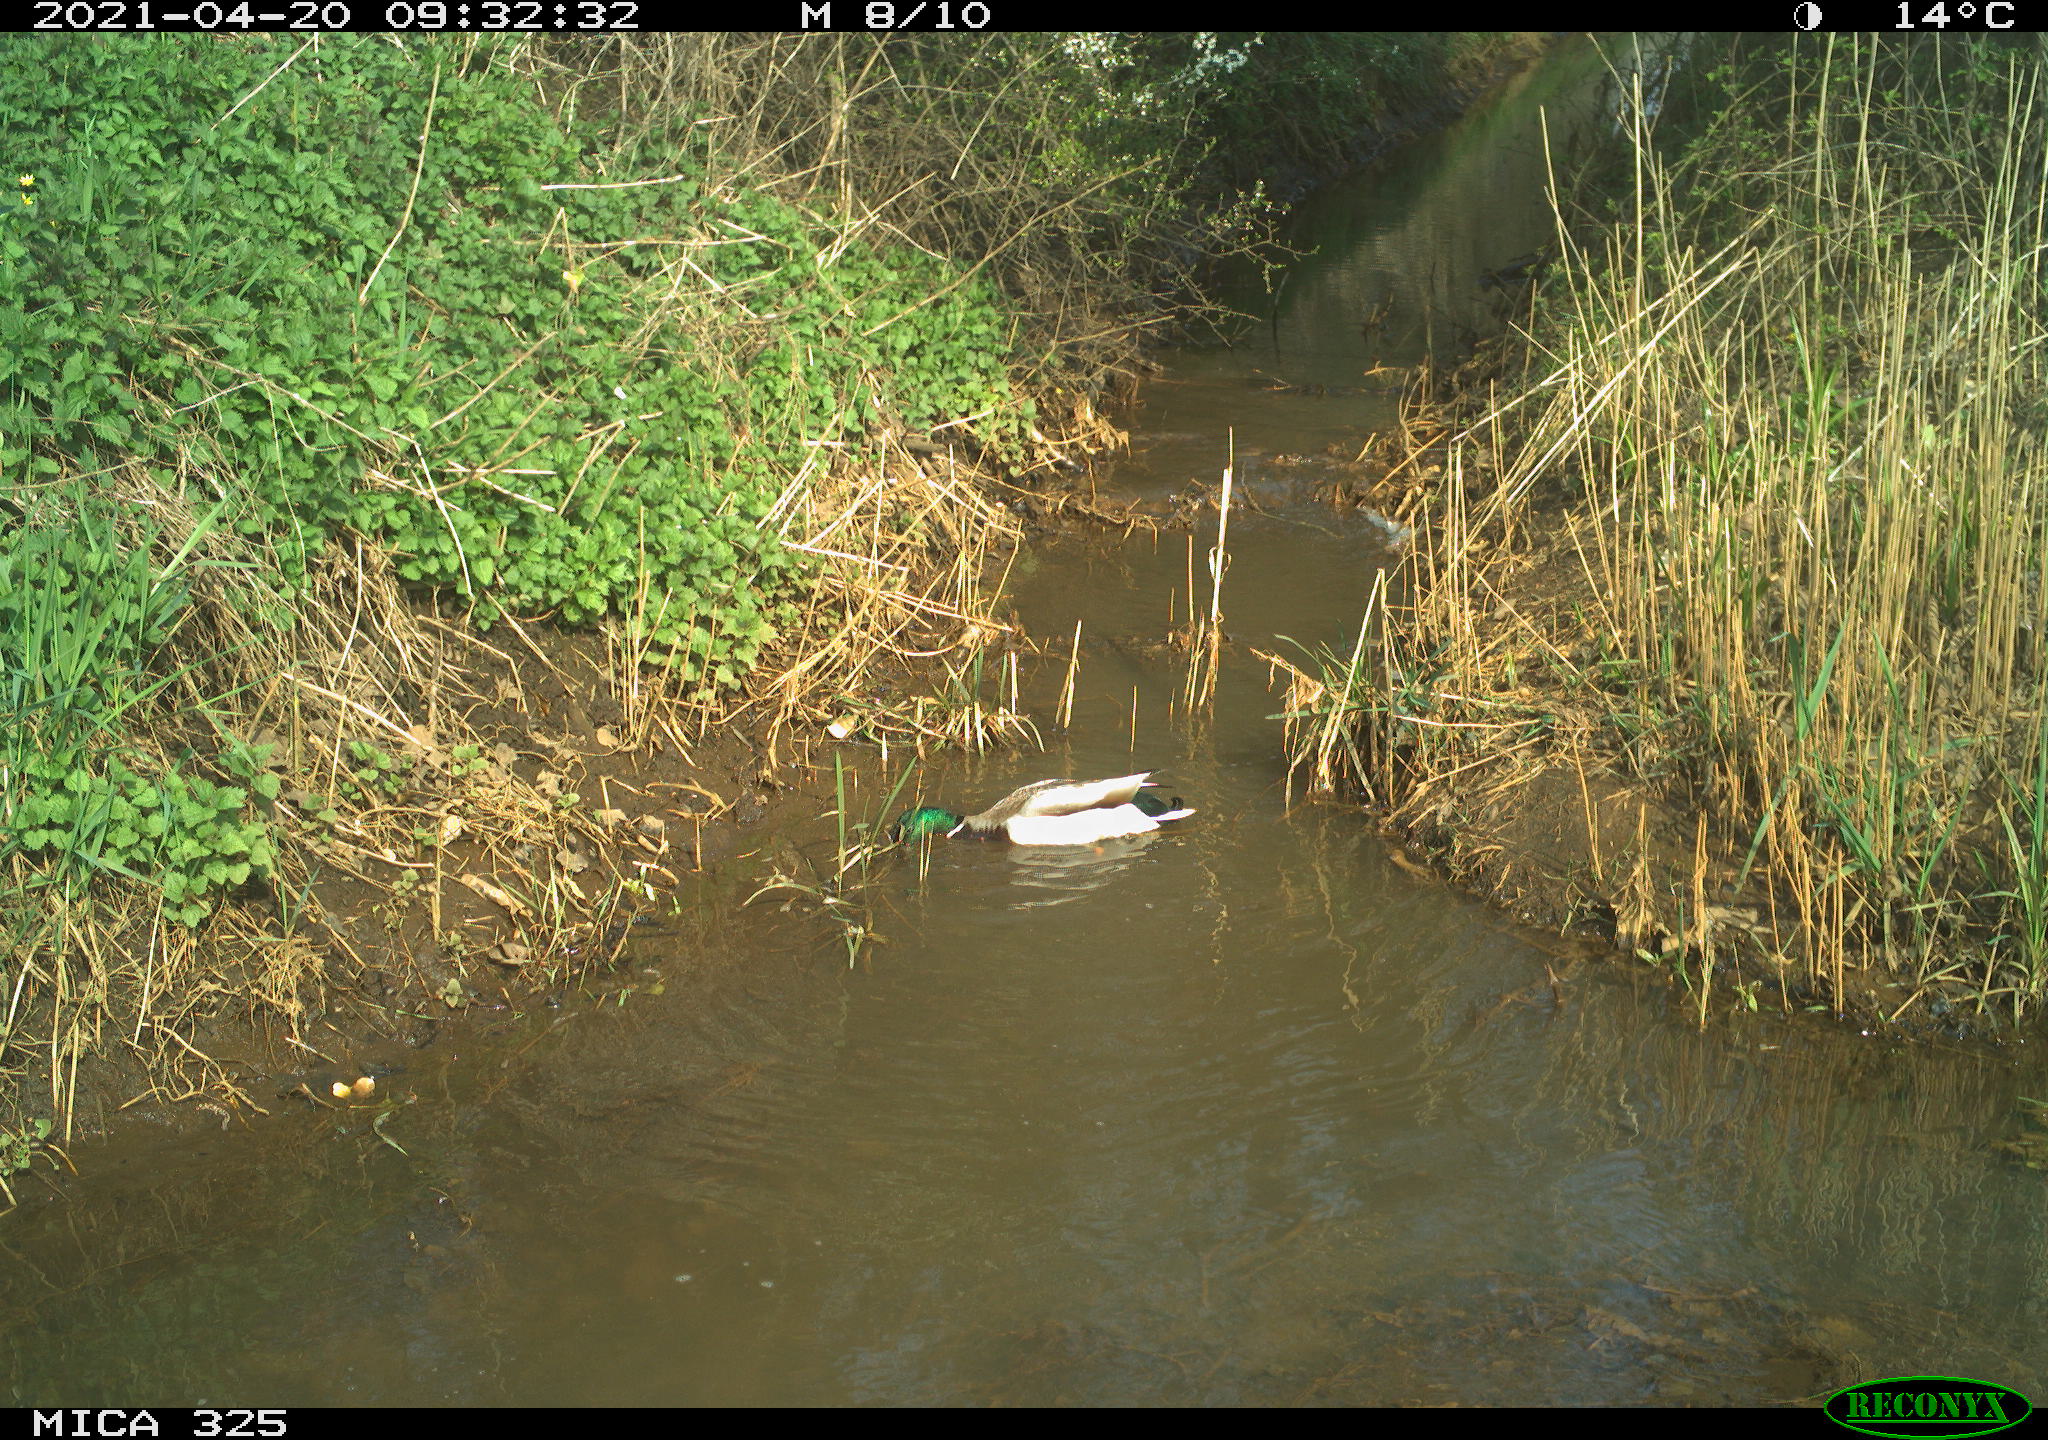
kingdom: Animalia
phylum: Chordata
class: Aves
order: Anseriformes
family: Anatidae
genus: Anas
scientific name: Anas platyrhynchos
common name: Mallard
